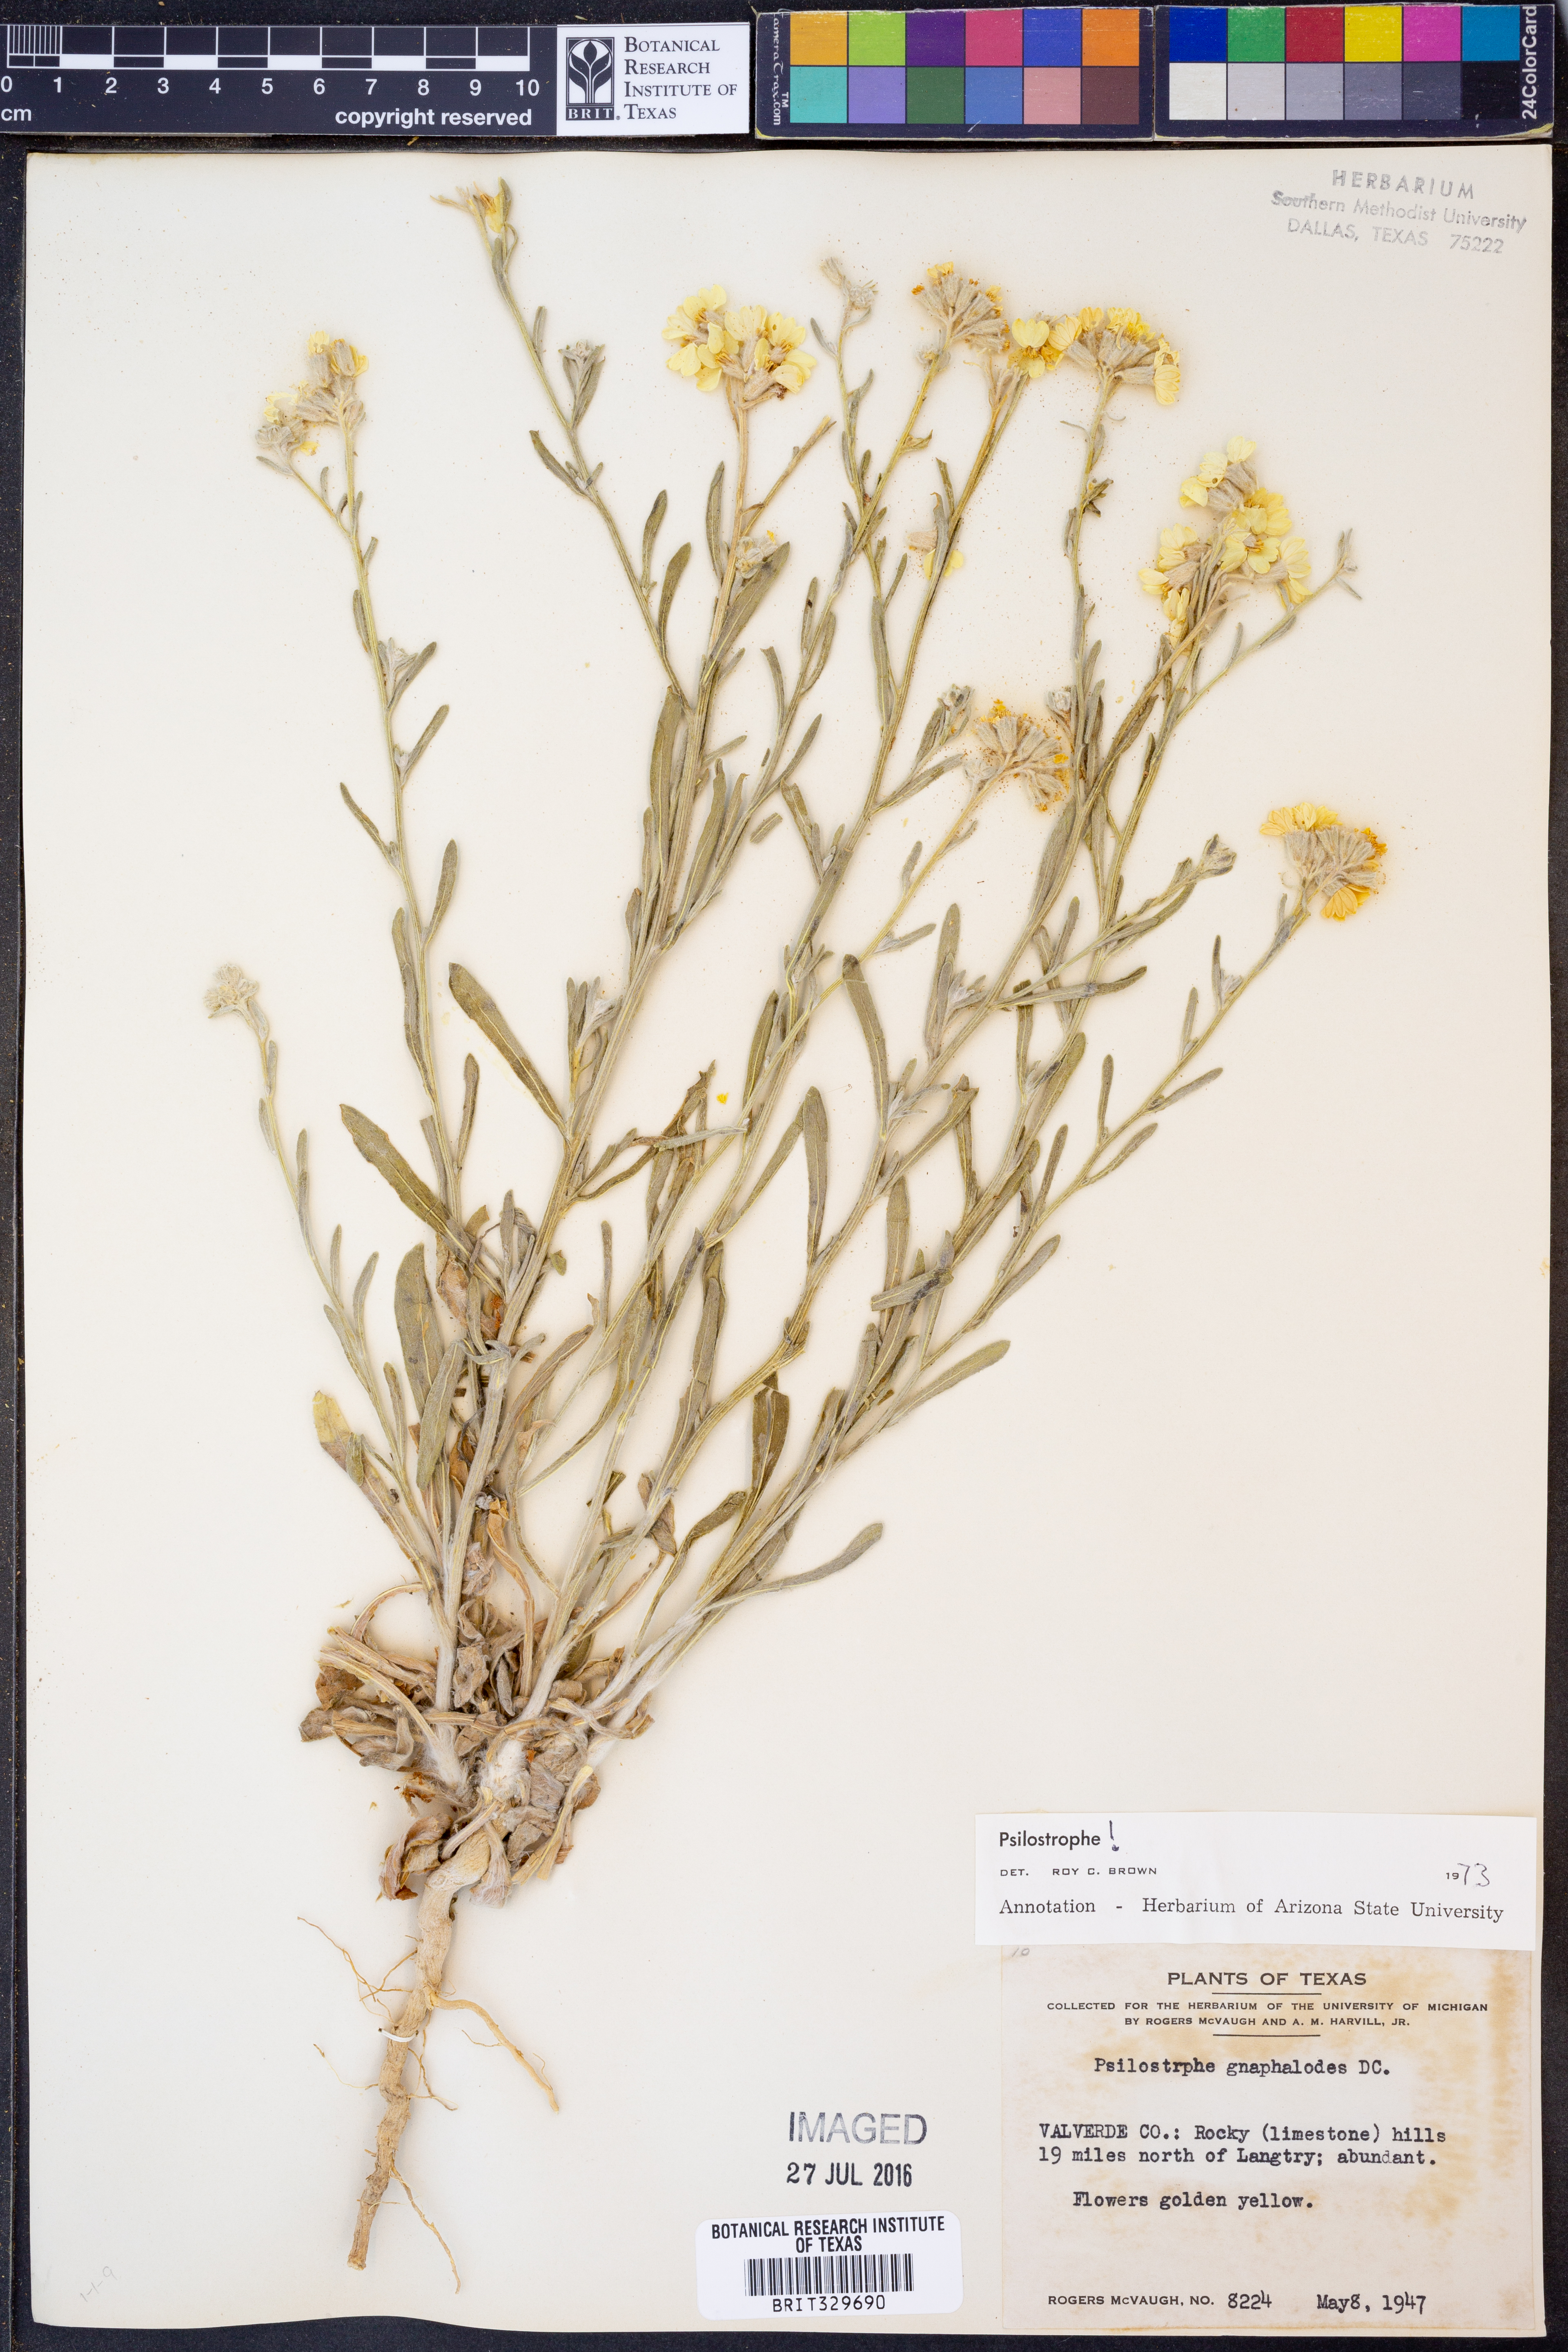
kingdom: Plantae
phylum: Tracheophyta
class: Magnoliopsida
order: Asterales
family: Asteraceae
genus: Psilostrophe
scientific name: Psilostrophe gnaphalioides
